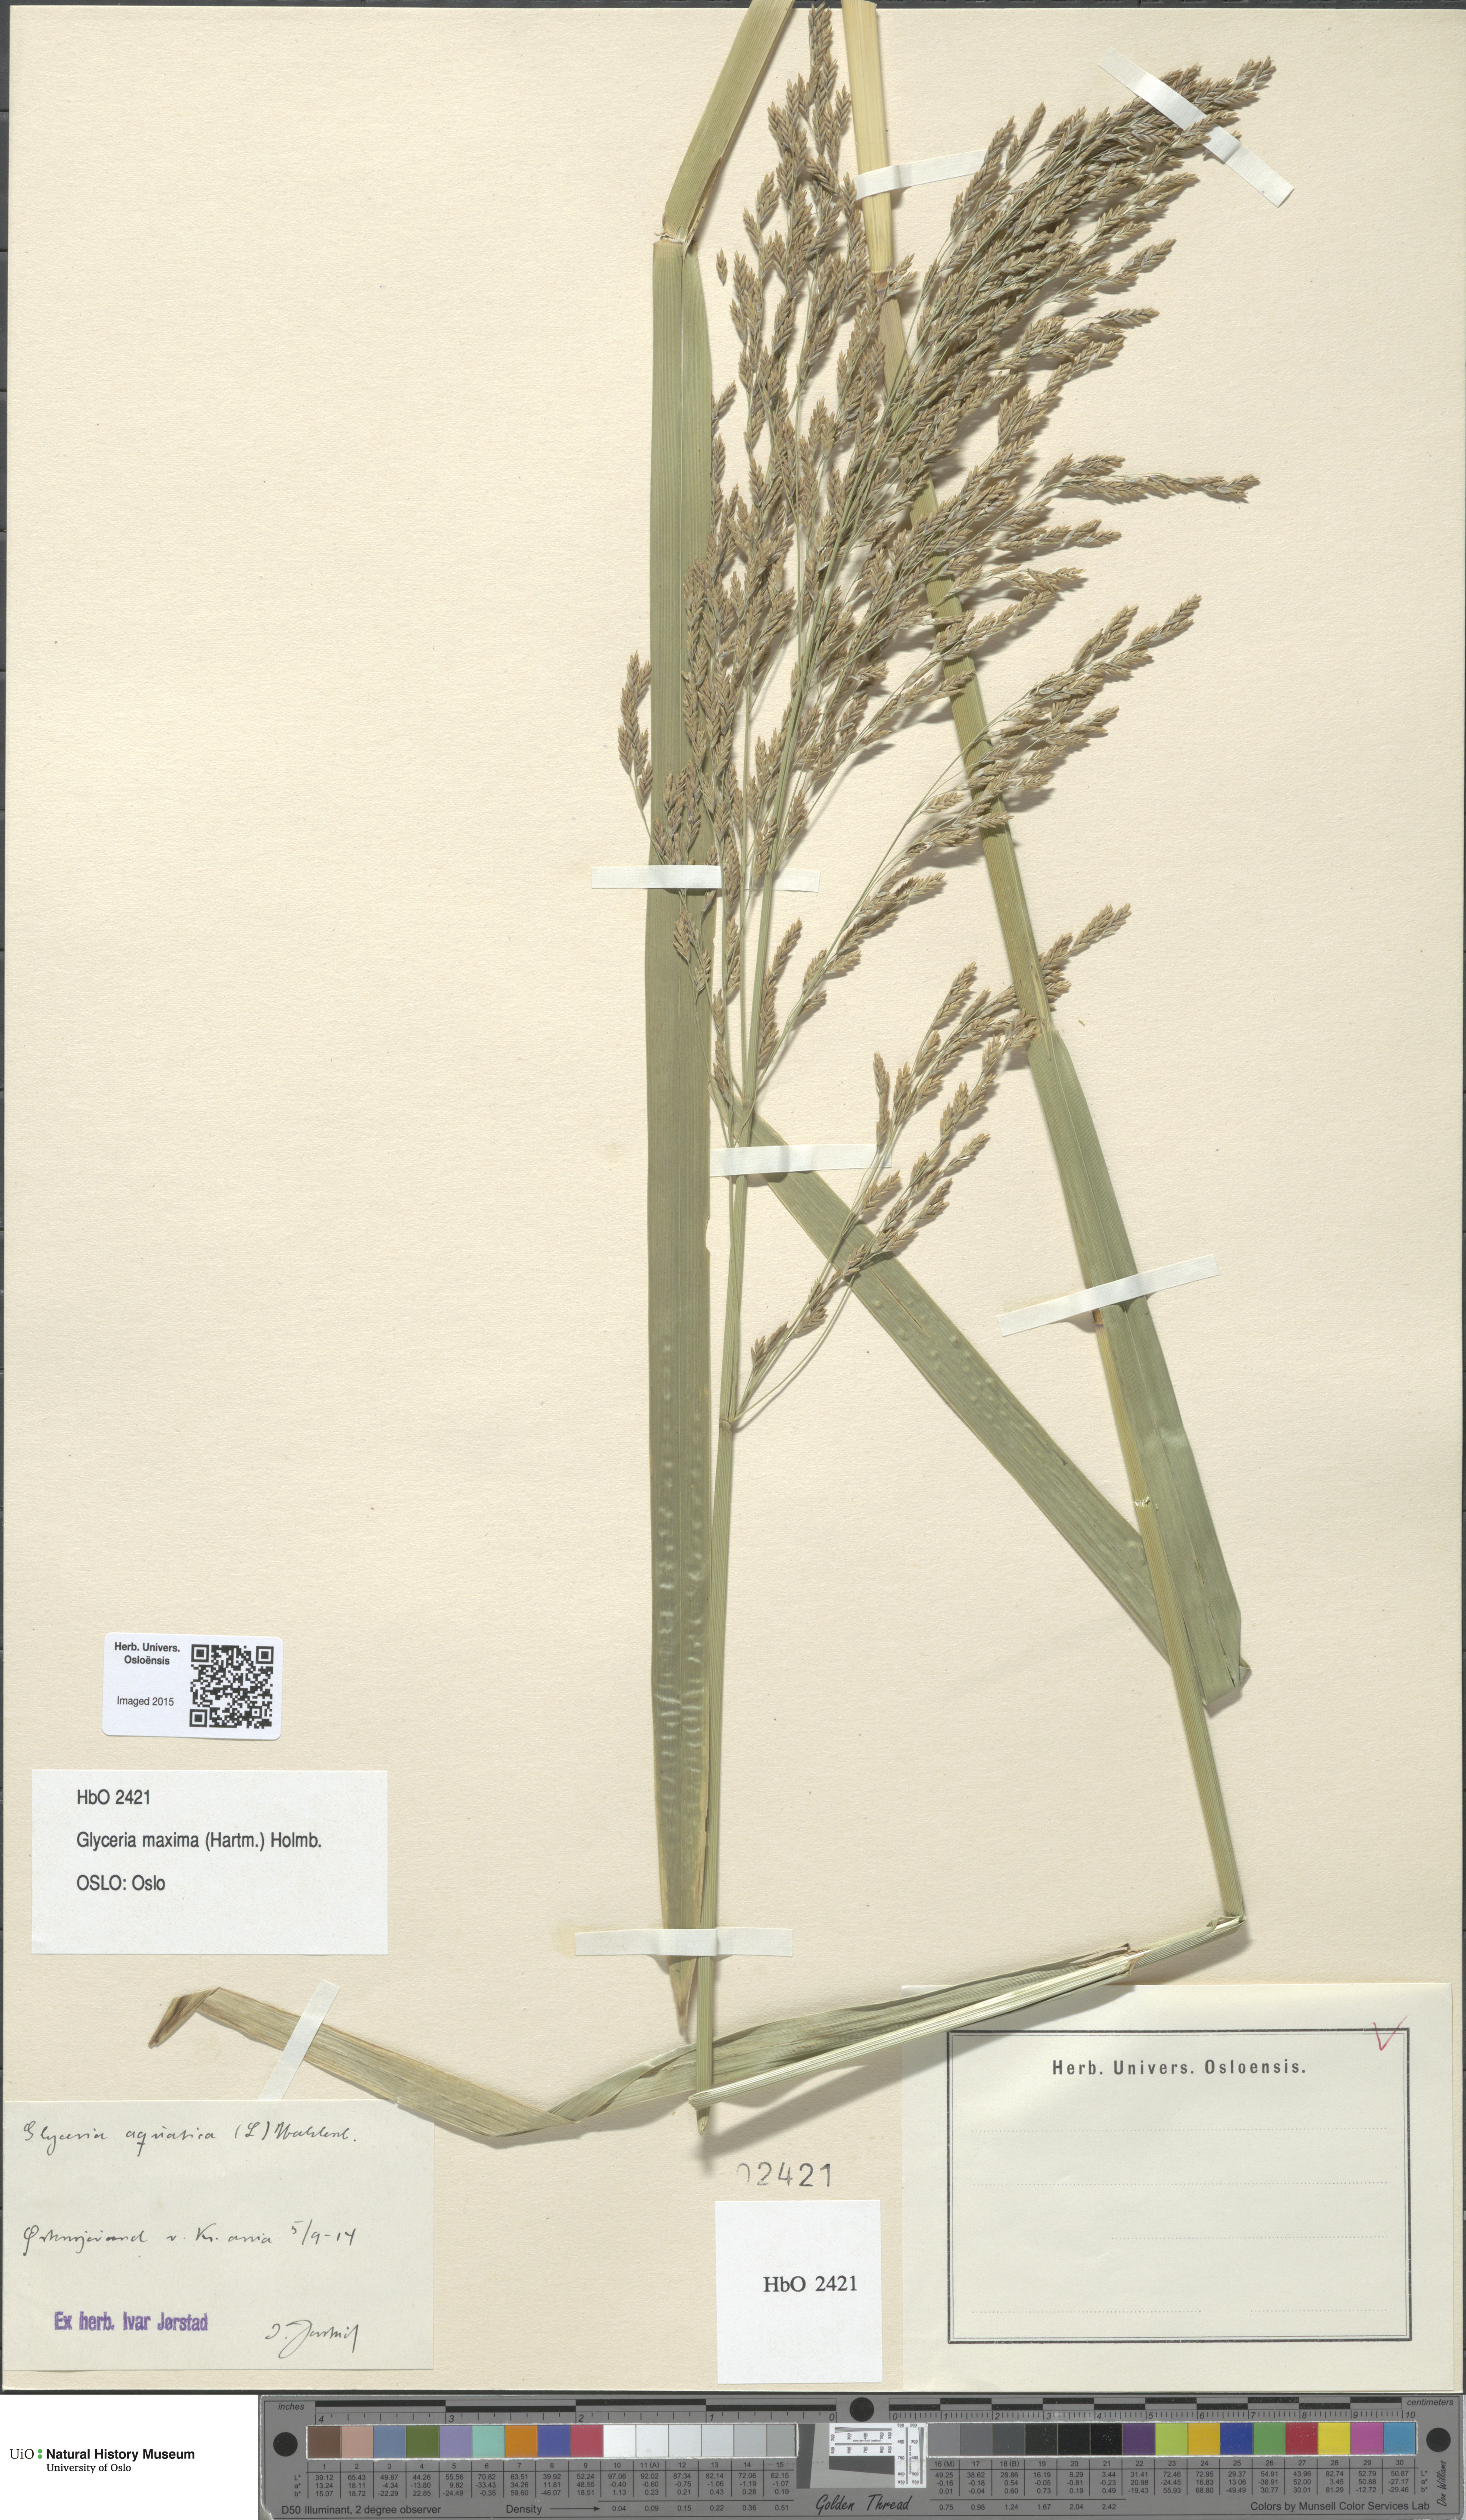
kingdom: Plantae
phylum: Tracheophyta
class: Liliopsida
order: Poales
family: Poaceae
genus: Glyceria
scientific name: Glyceria maxima
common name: Reed mannagrass
